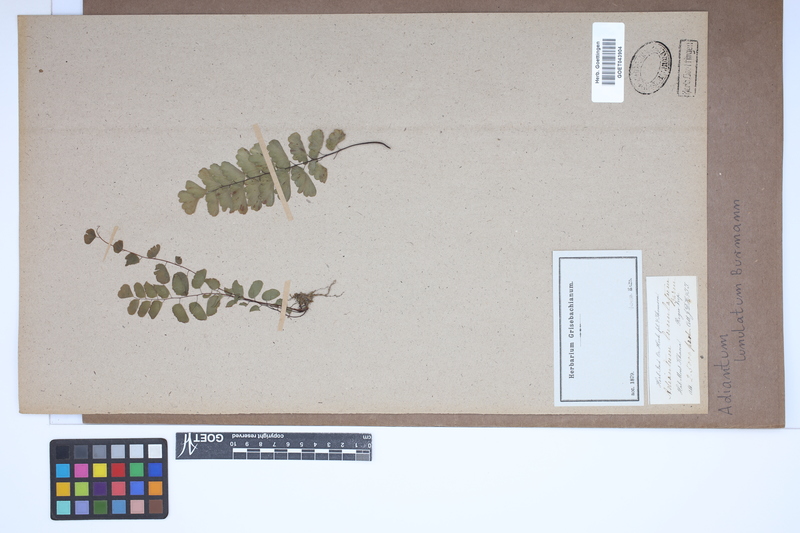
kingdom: Plantae
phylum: Tracheophyta
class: Polypodiopsida
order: Polypodiales
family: Pteridaceae
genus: Adiantum
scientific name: Adiantum philippense
